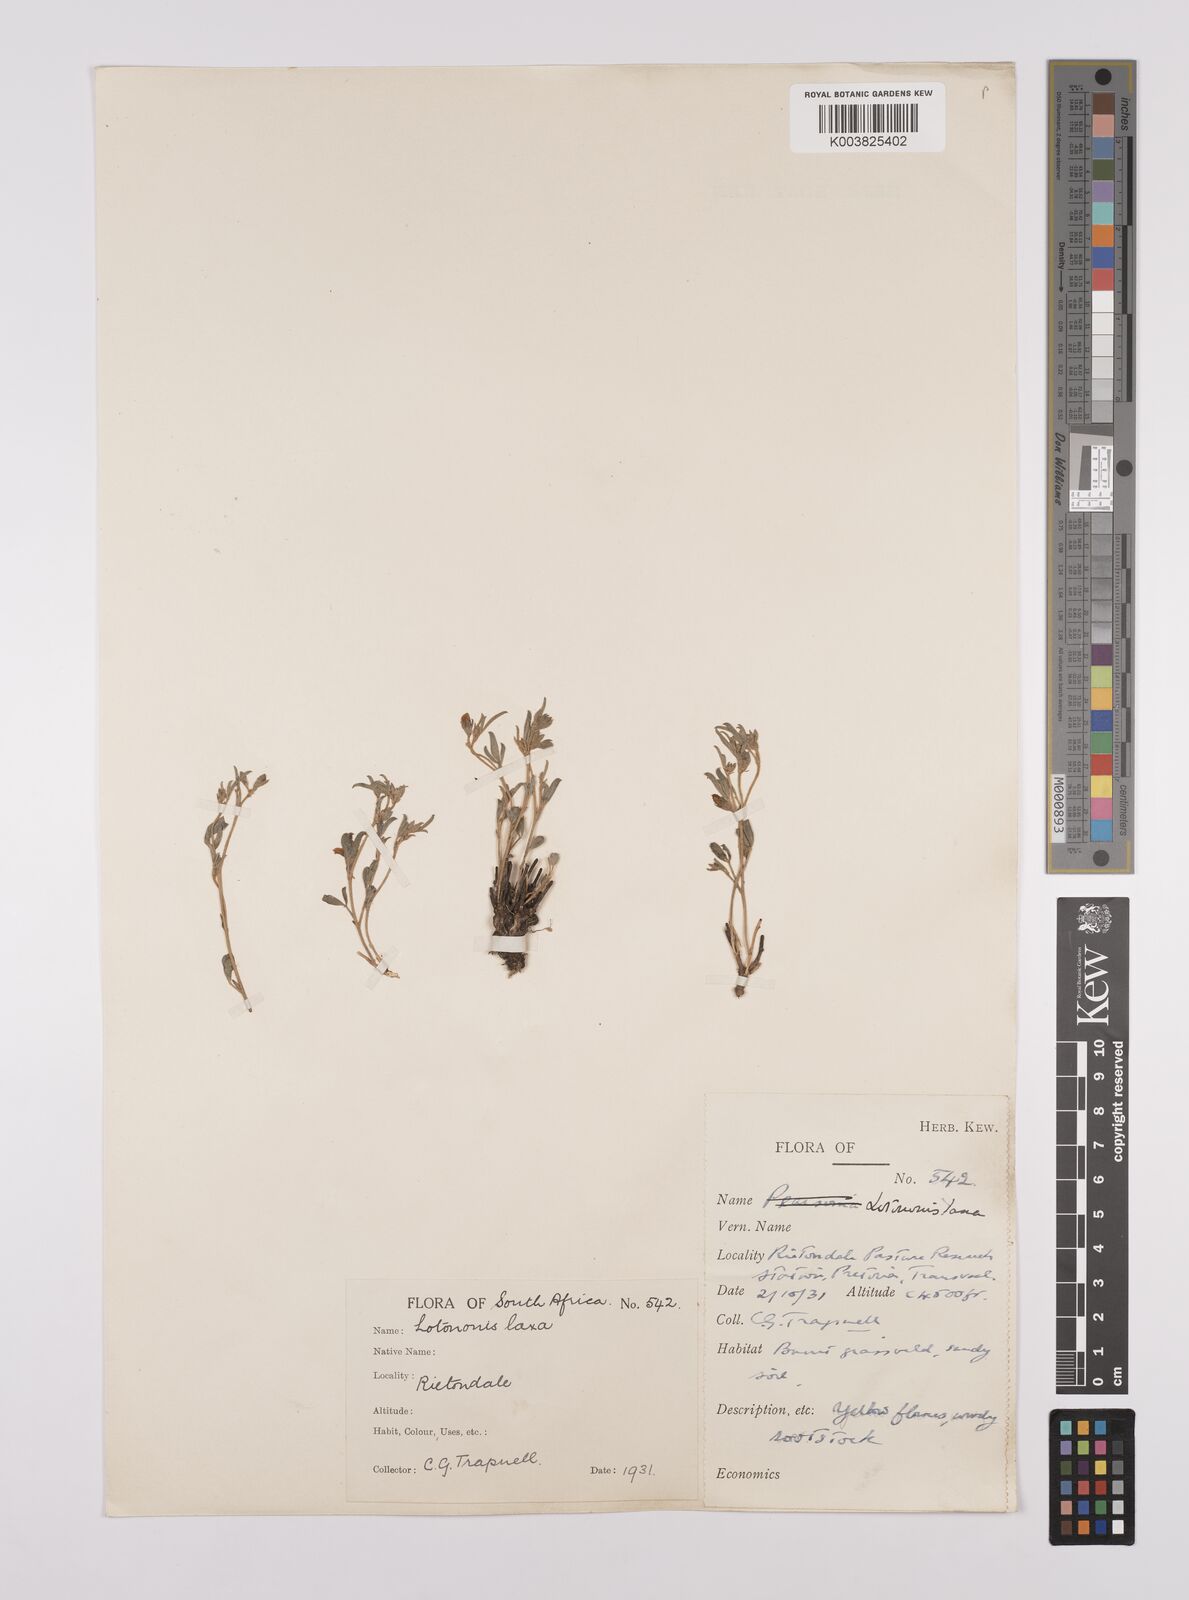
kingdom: Plantae
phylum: Tracheophyta
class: Magnoliopsida
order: Fabales
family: Fabaceae
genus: Lotononis
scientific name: Lotononis laxa
